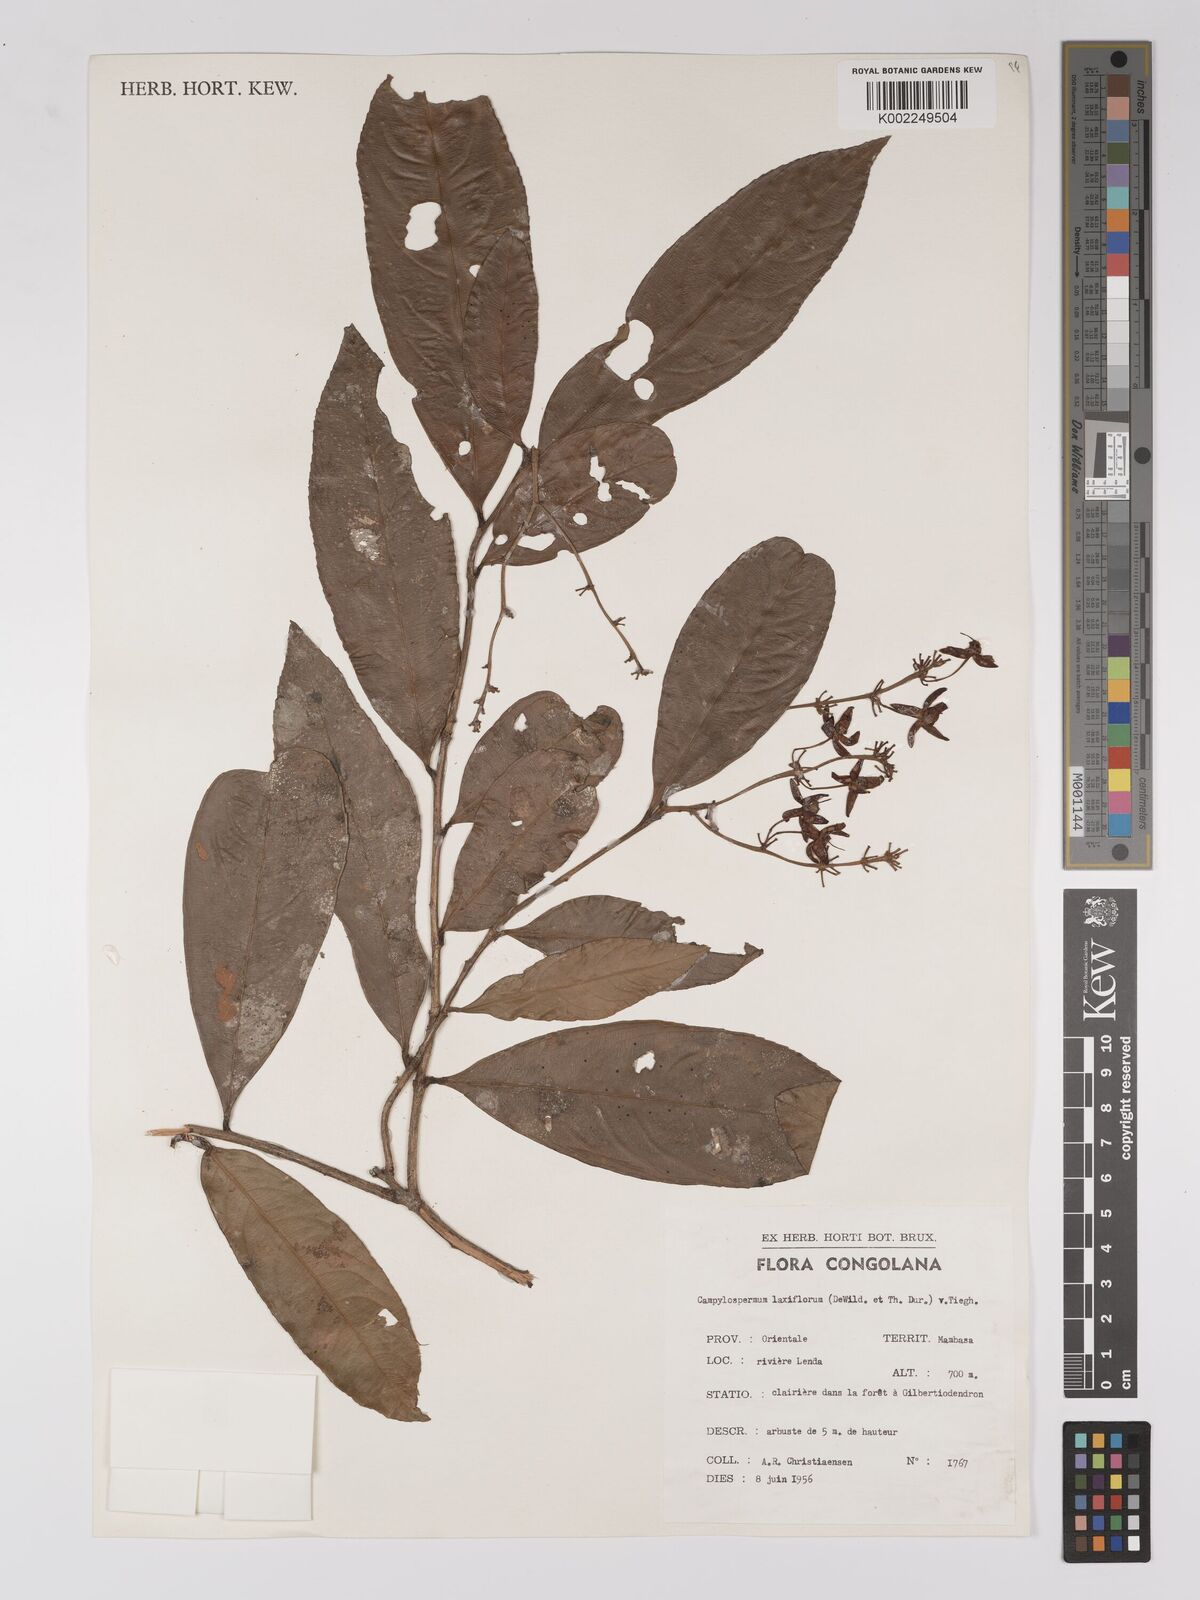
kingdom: Plantae
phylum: Tracheophyta
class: Magnoliopsida
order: Malpighiales
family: Ochnaceae
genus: Campylospermum
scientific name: Campylospermum laxiflorum
